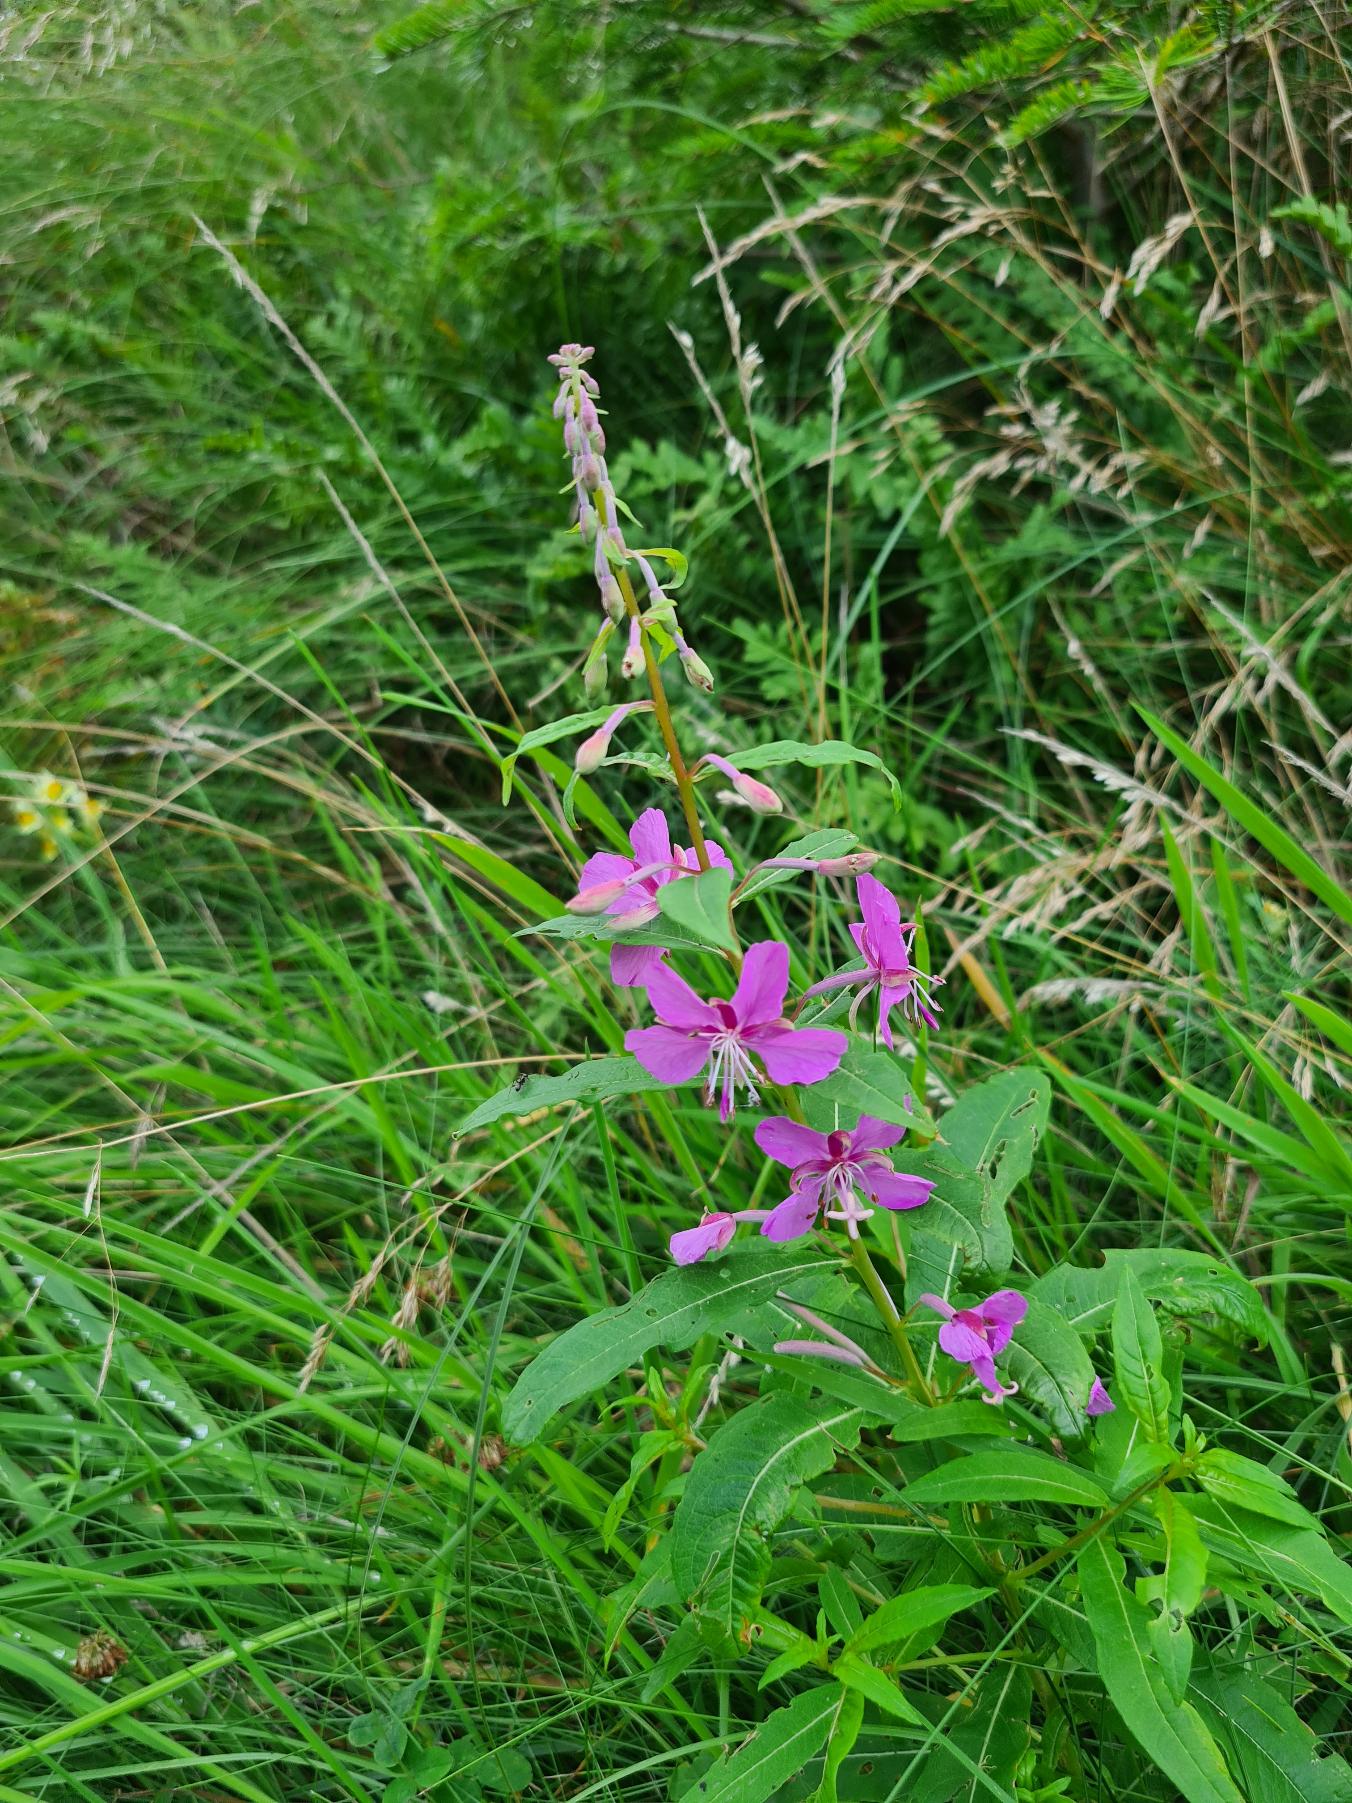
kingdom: Plantae
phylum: Tracheophyta
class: Magnoliopsida
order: Myrtales
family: Onagraceae
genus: Chamaenerion
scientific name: Chamaenerion angustifolium
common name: Gederams
